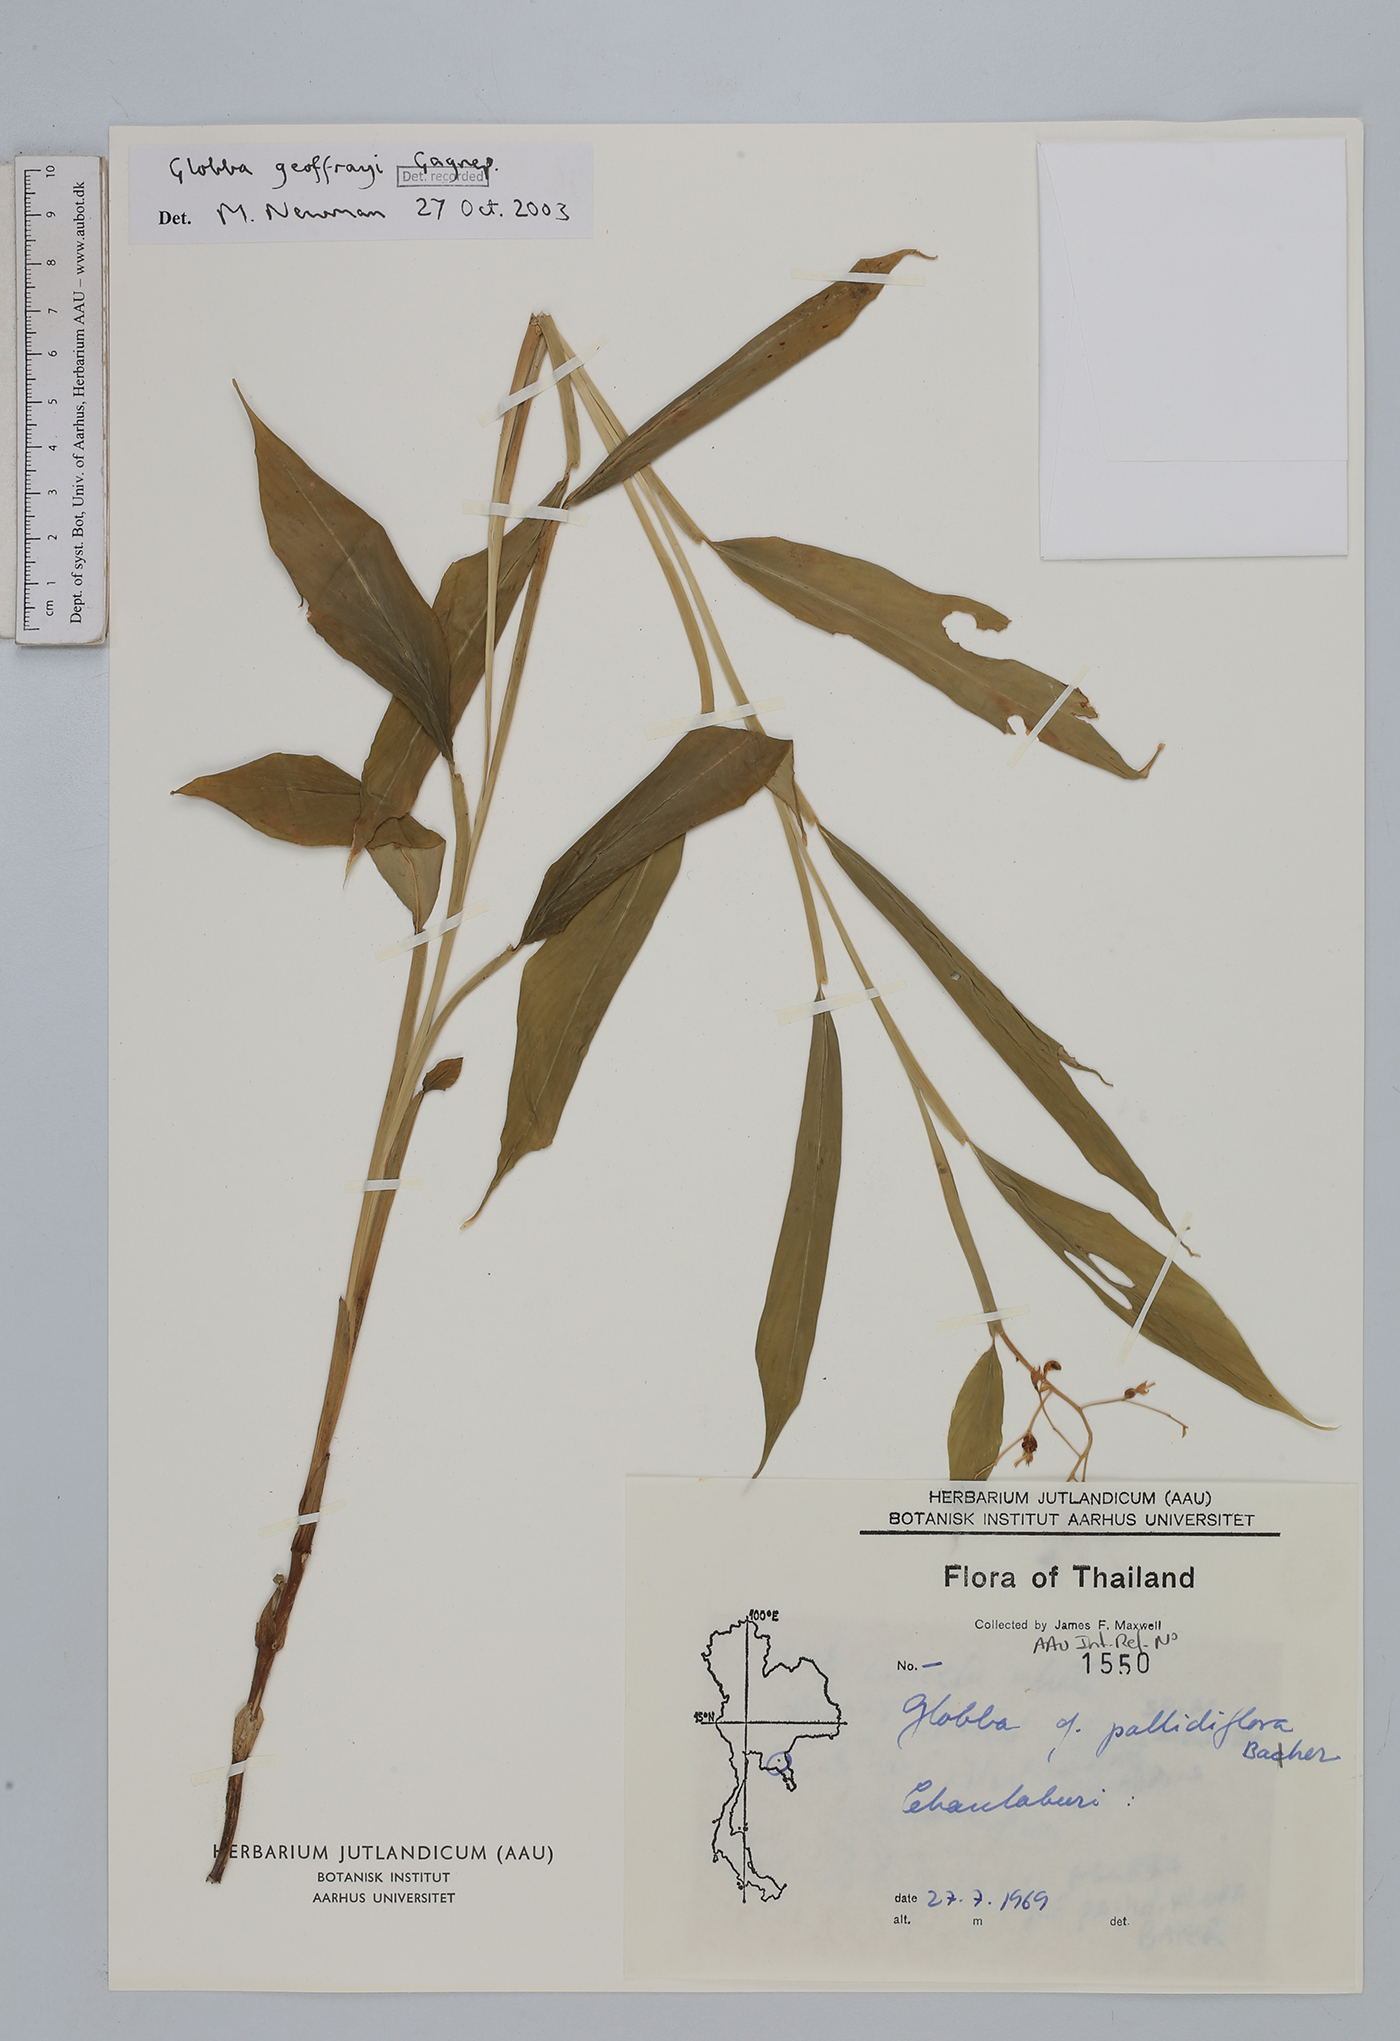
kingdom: Plantae
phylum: Tracheophyta
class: Liliopsida
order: Zingiberales
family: Zingiberaceae
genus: Globba
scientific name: Globba geoffrayi
